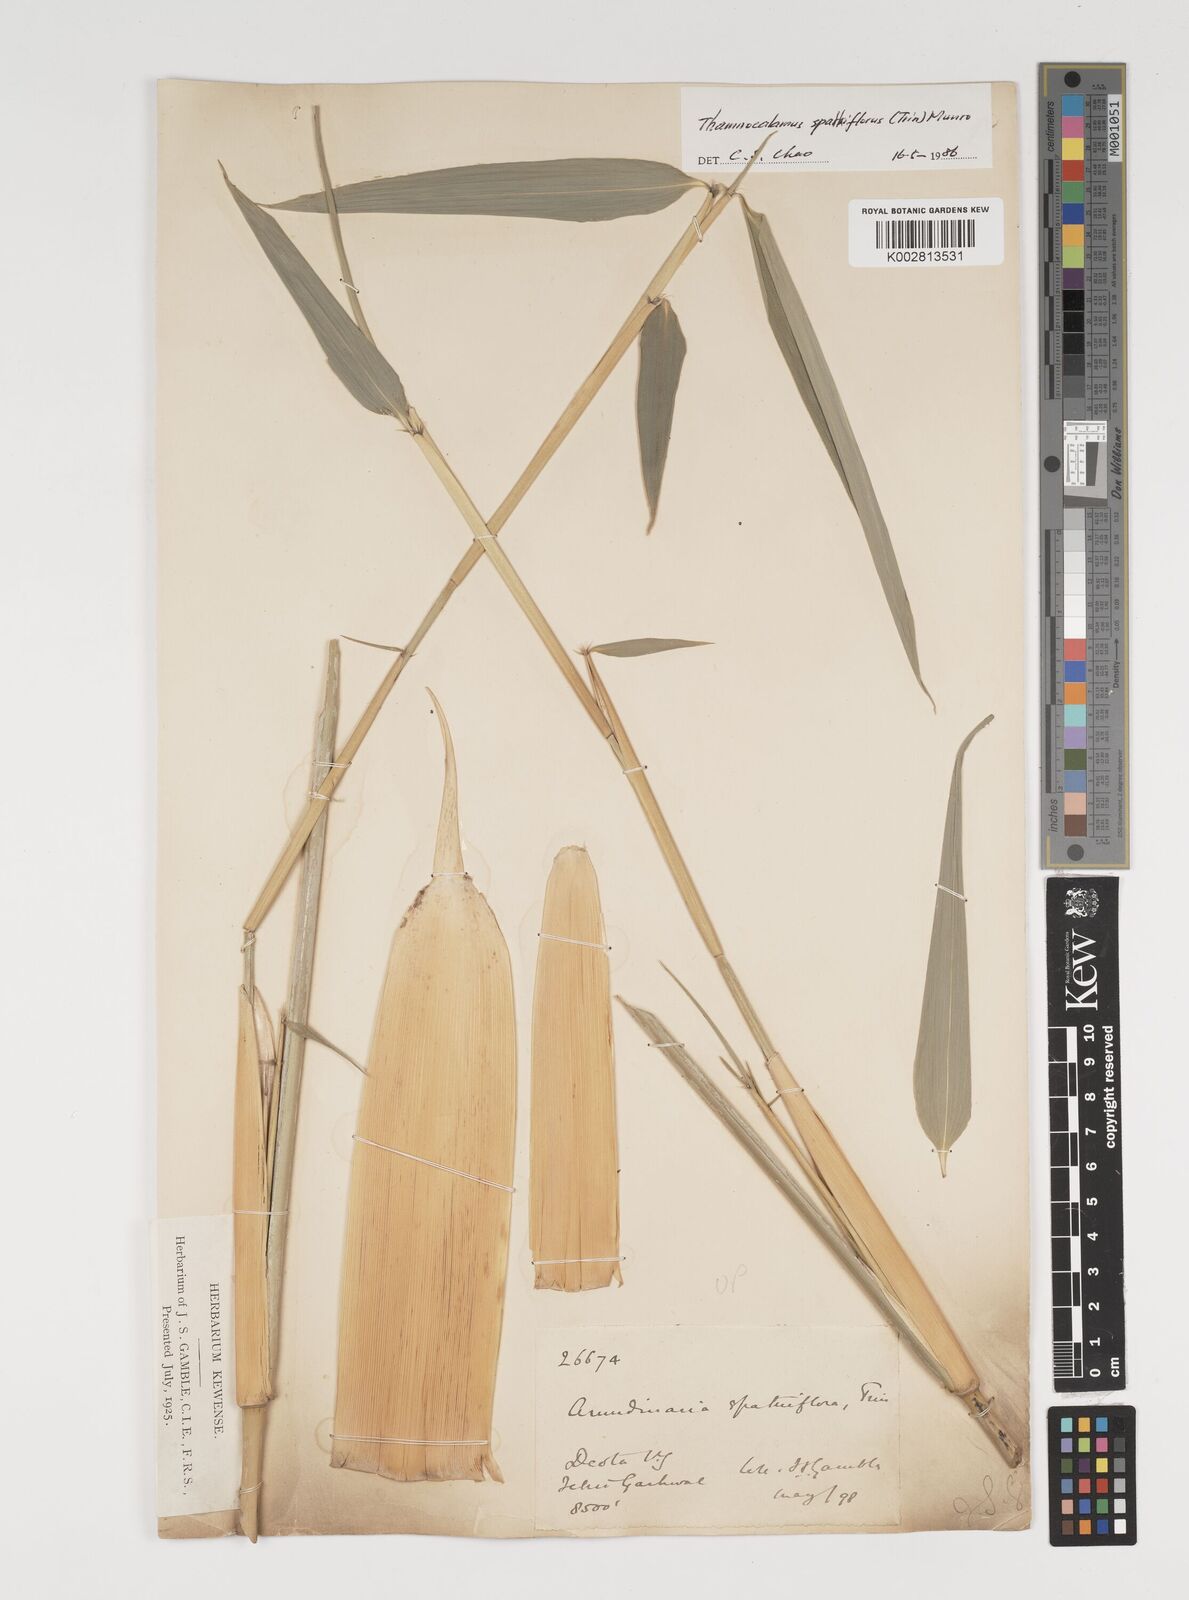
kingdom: Plantae
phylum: Tracheophyta
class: Liliopsida
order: Poales
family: Poaceae
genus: Thamnocalamus
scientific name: Thamnocalamus spathiflorus
